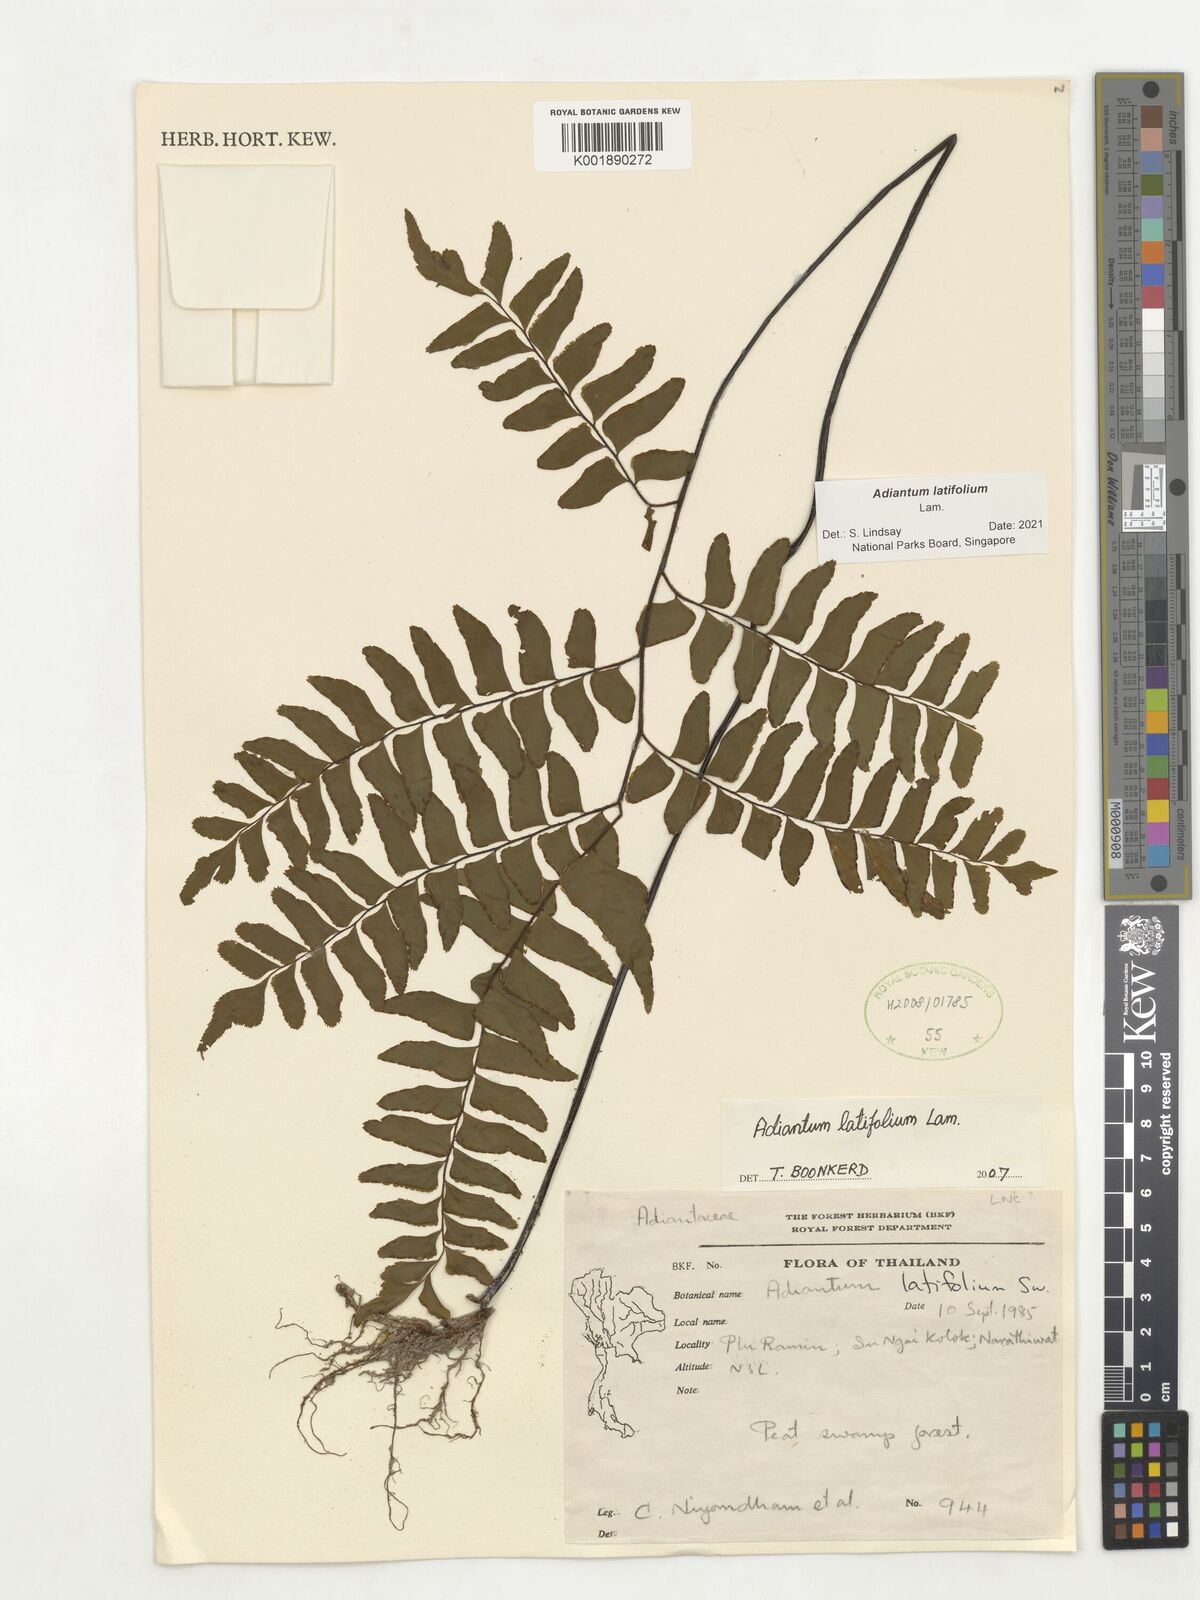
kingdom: Plantae
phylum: Tracheophyta
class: Polypodiopsida
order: Polypodiales
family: Pteridaceae
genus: Adiantum
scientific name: Adiantum latifolium
